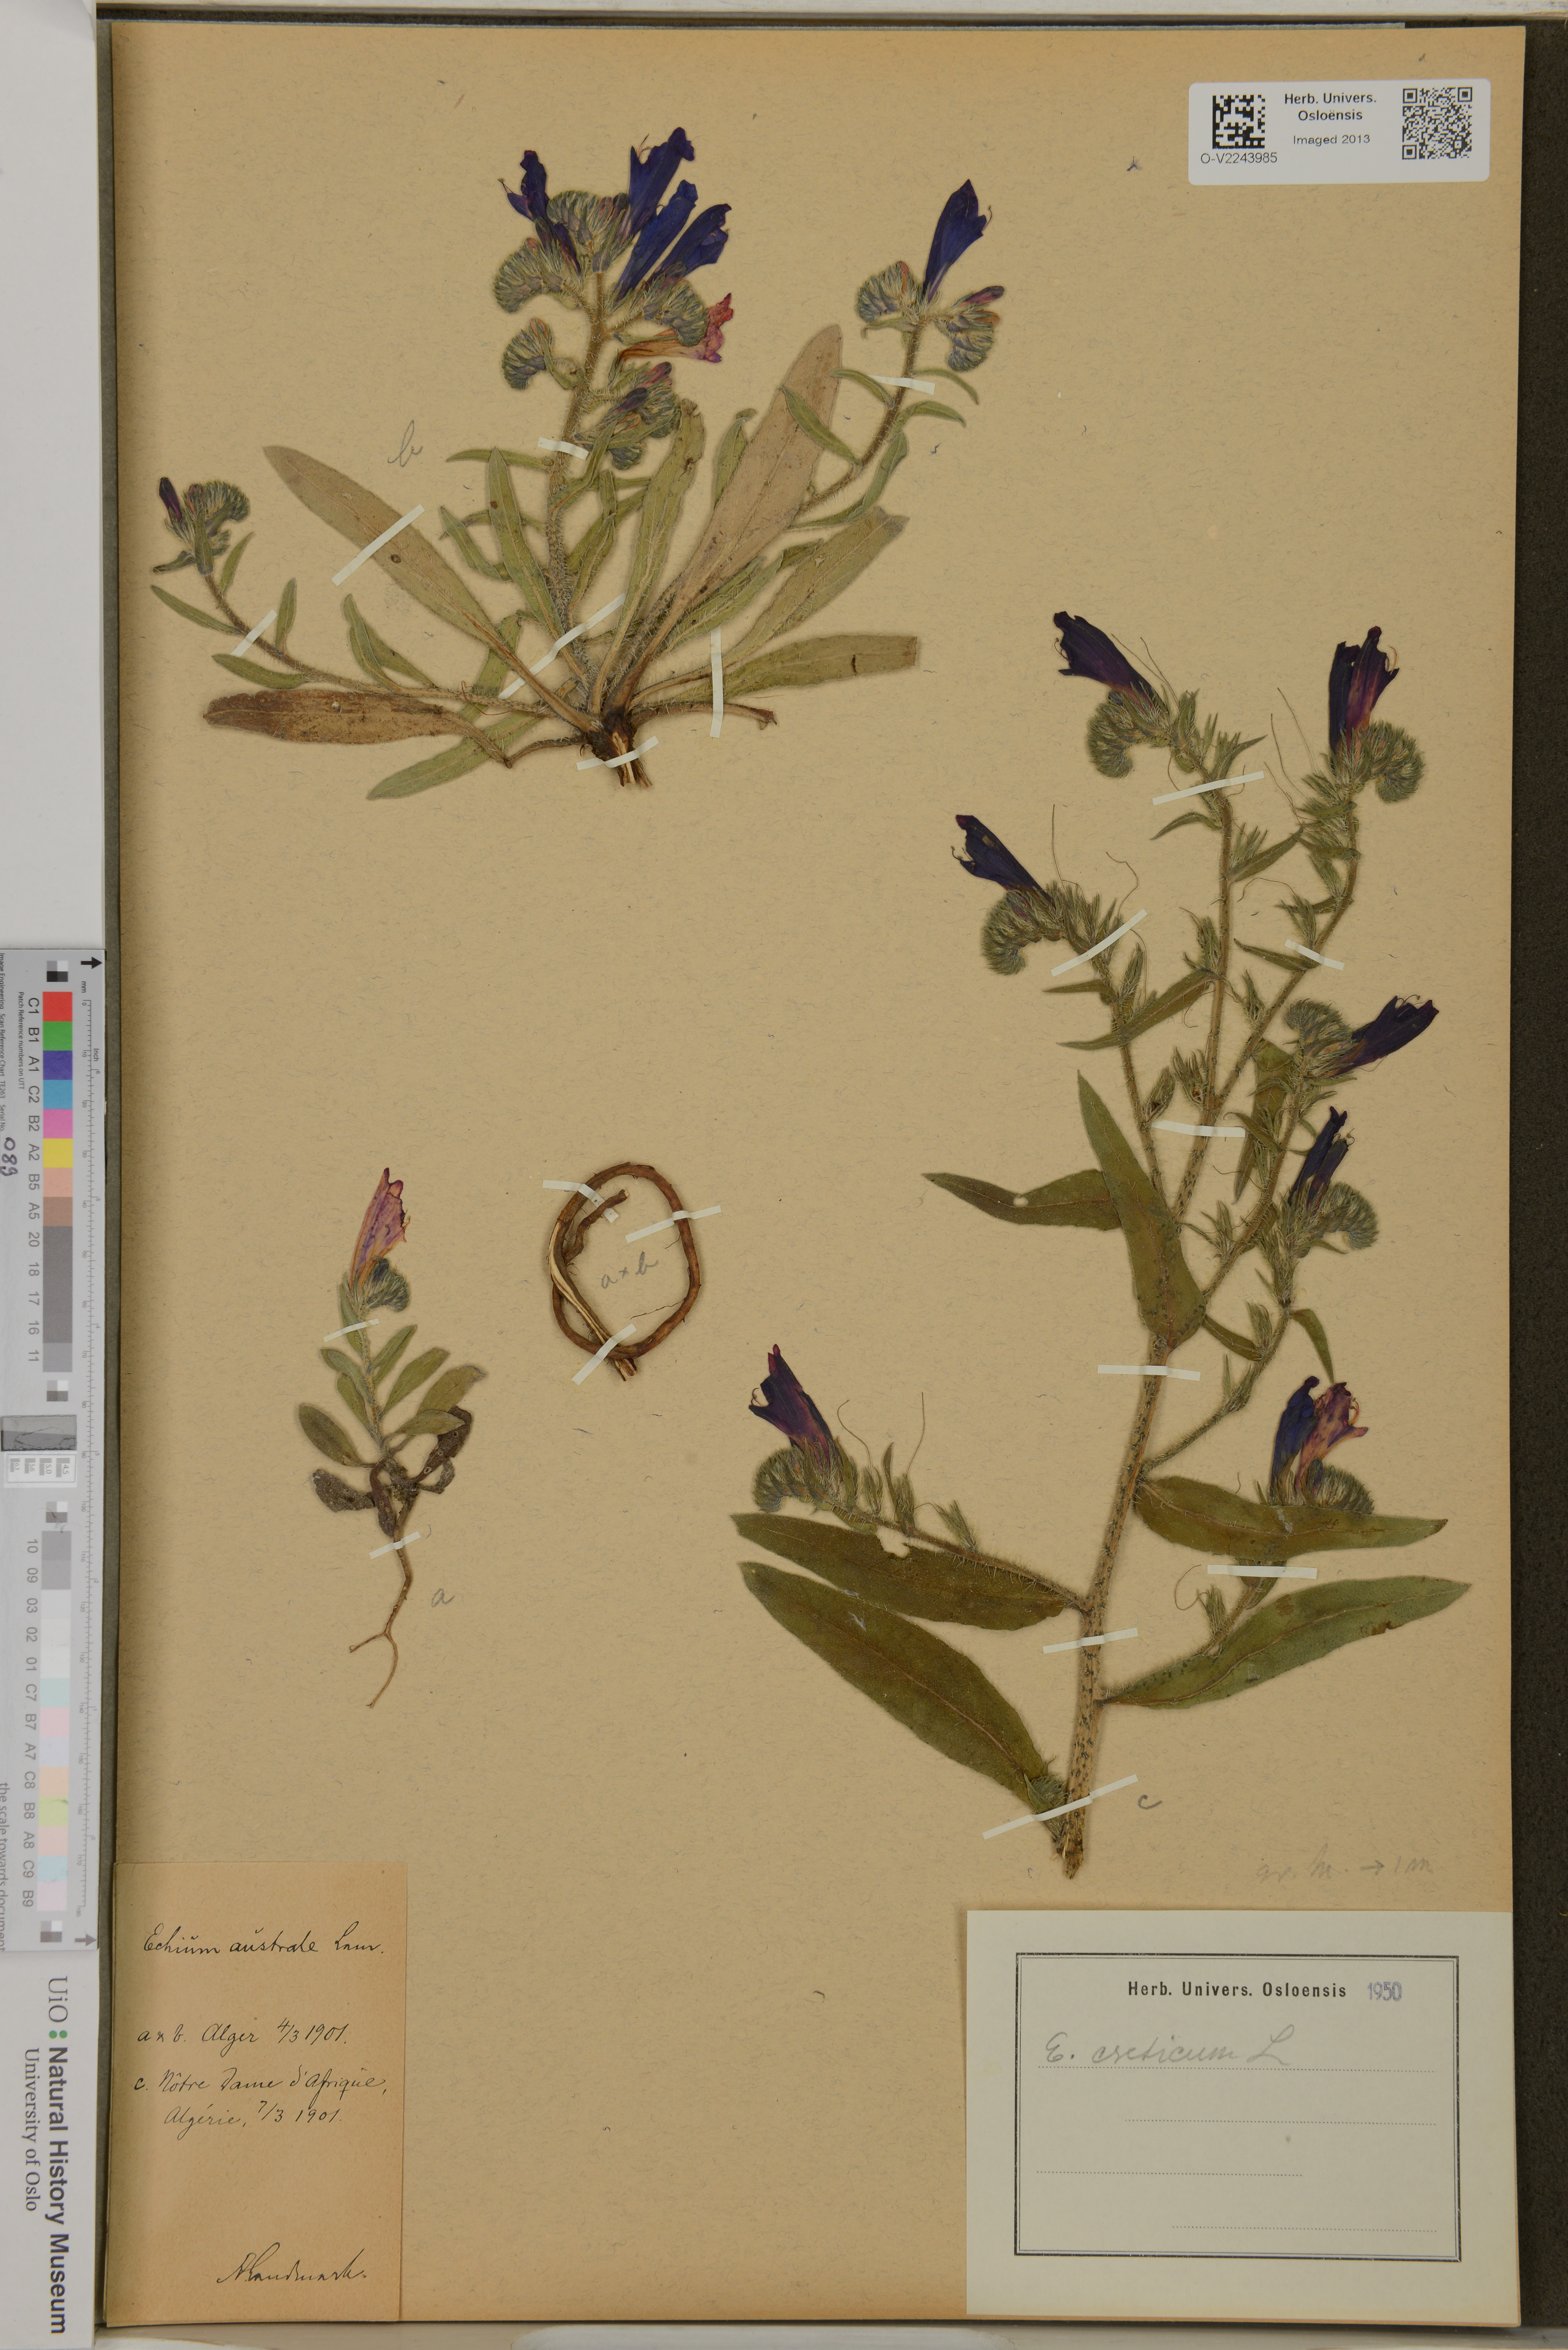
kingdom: Plantae
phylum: Tracheophyta
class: Magnoliopsida
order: Boraginales
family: Boraginaceae
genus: Echium
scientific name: Echium creticum
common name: Cretan viper's bugloss
